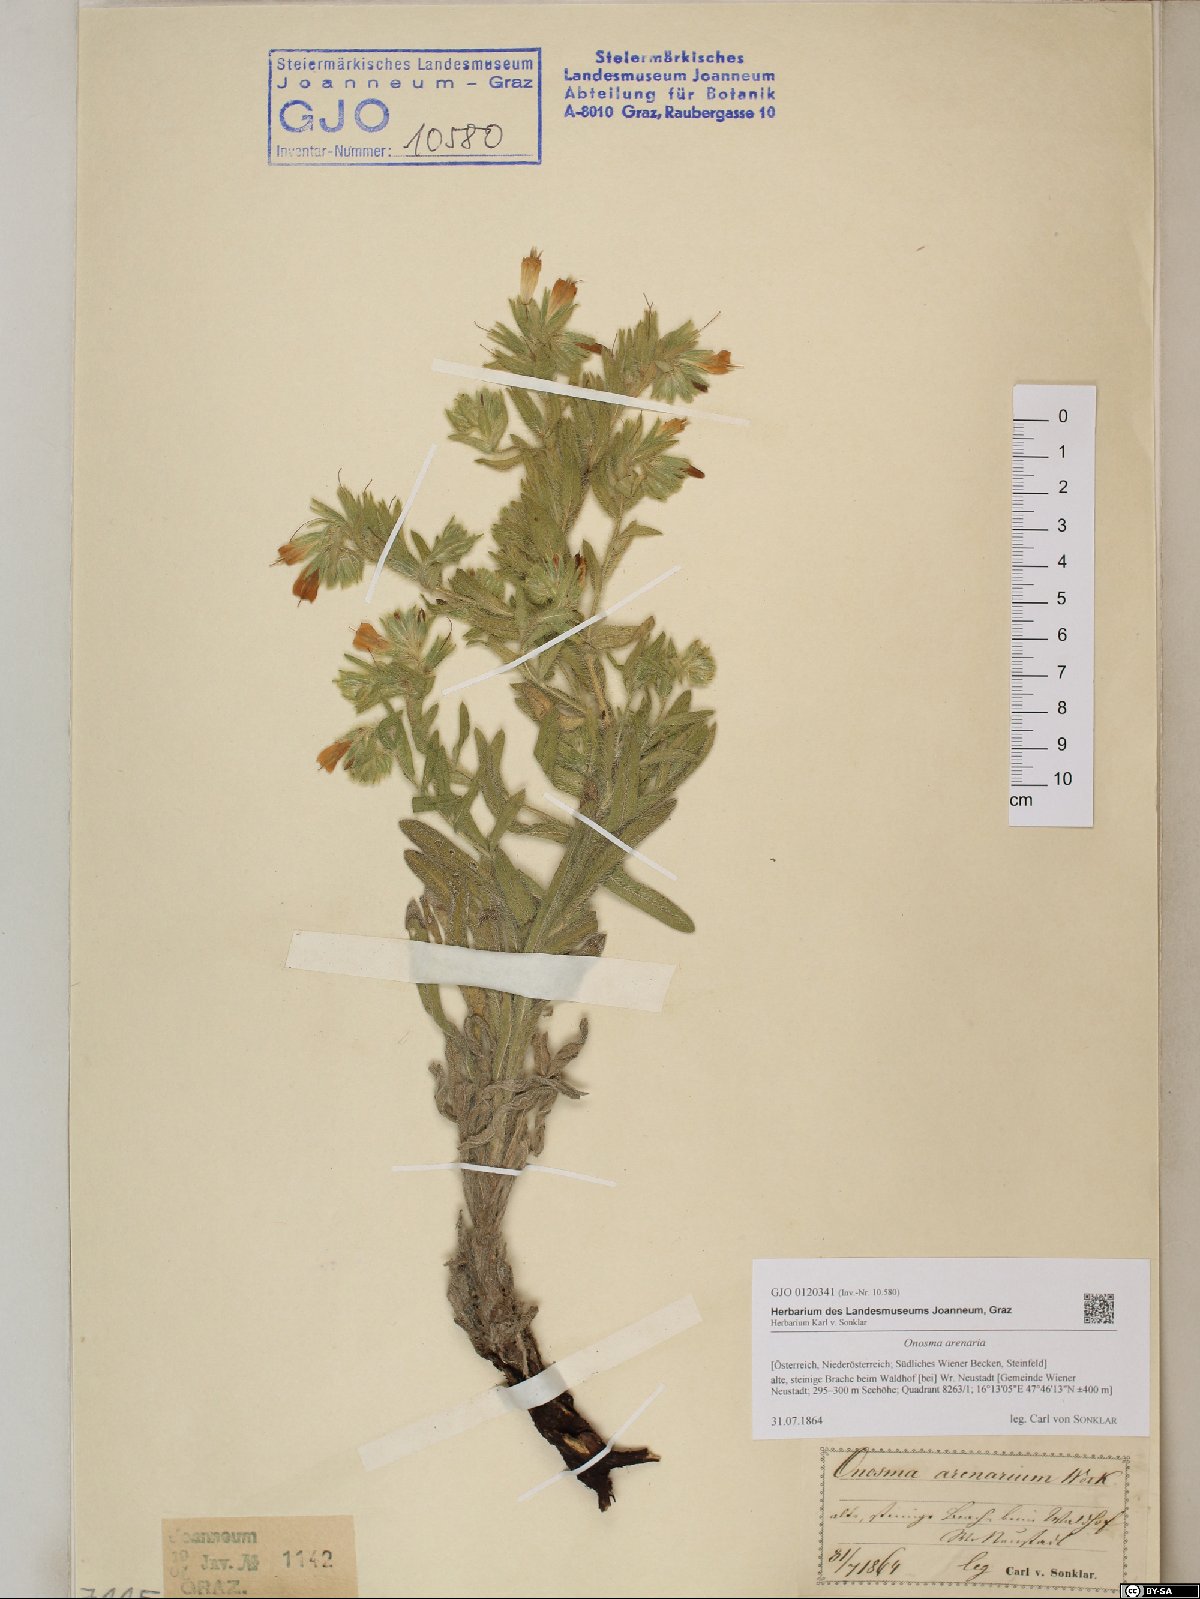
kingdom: Plantae
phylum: Tracheophyta
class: Magnoliopsida
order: Boraginales
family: Boraginaceae
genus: Onosma
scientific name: Onosma arenaria
